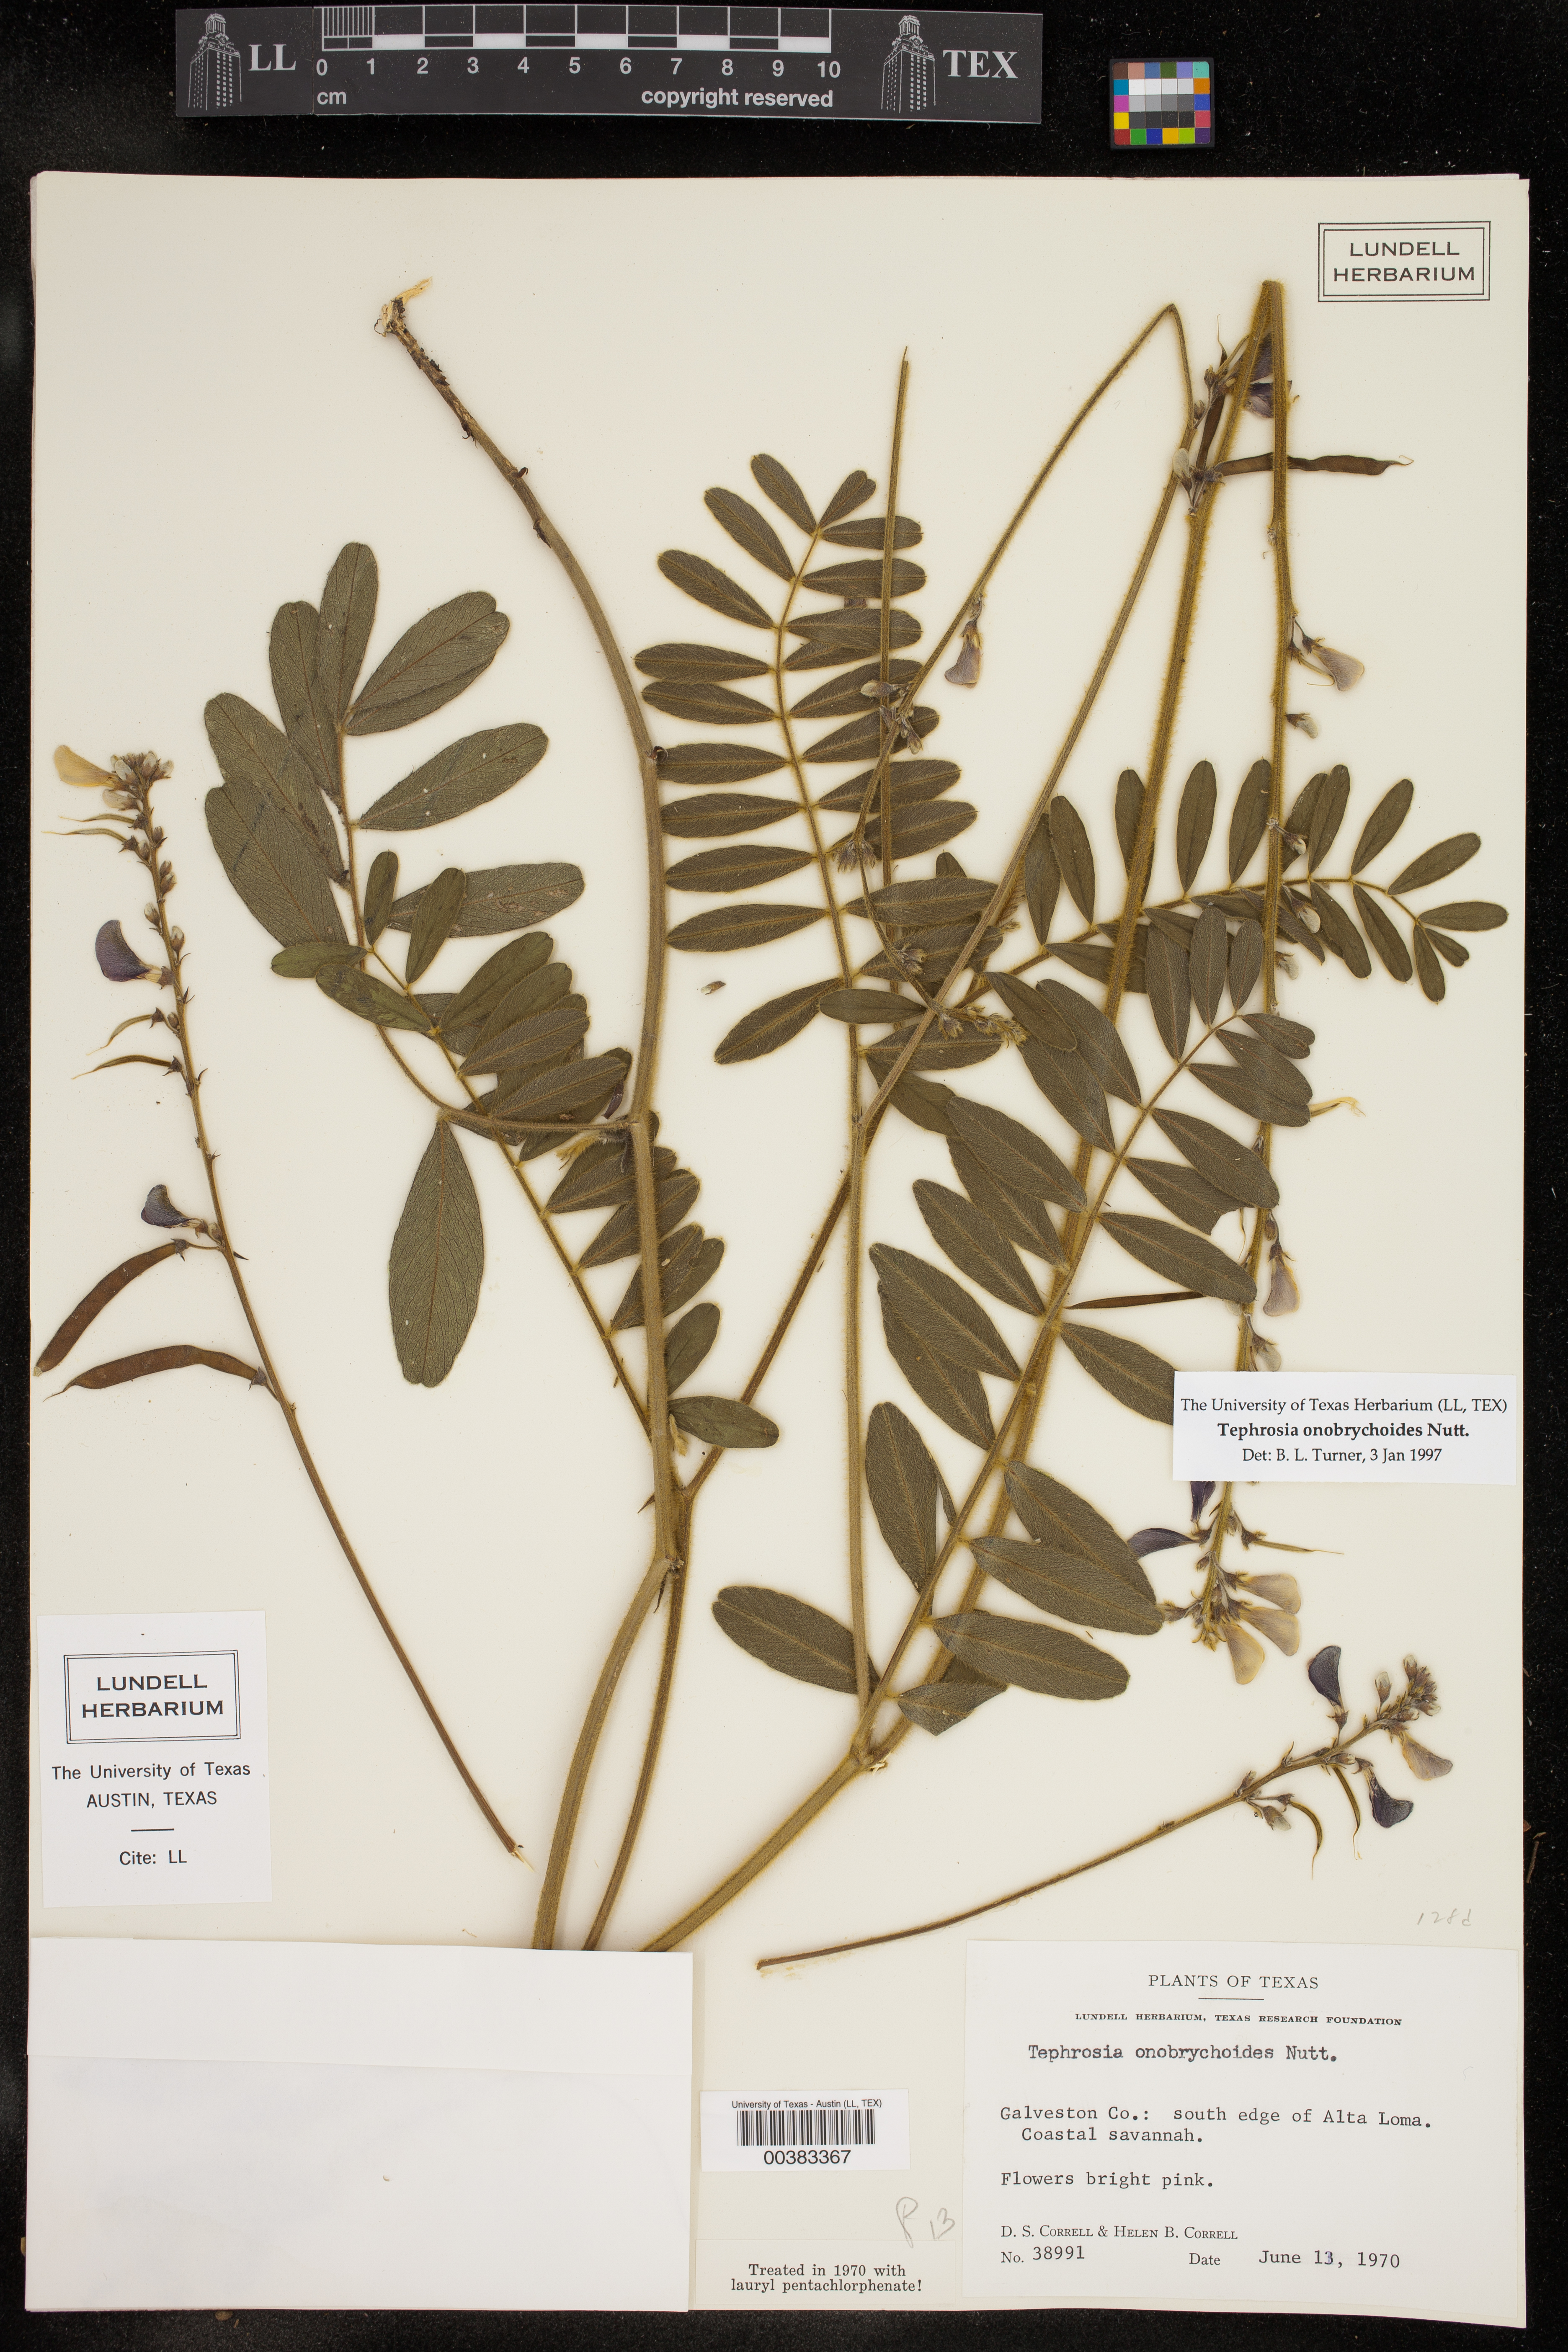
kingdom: Plantae
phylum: Tracheophyta
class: Magnoliopsida
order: Fabales
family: Fabaceae
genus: Tephrosia
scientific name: Tephrosia onobrychoides
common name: Multi-bloom hoary-pea
